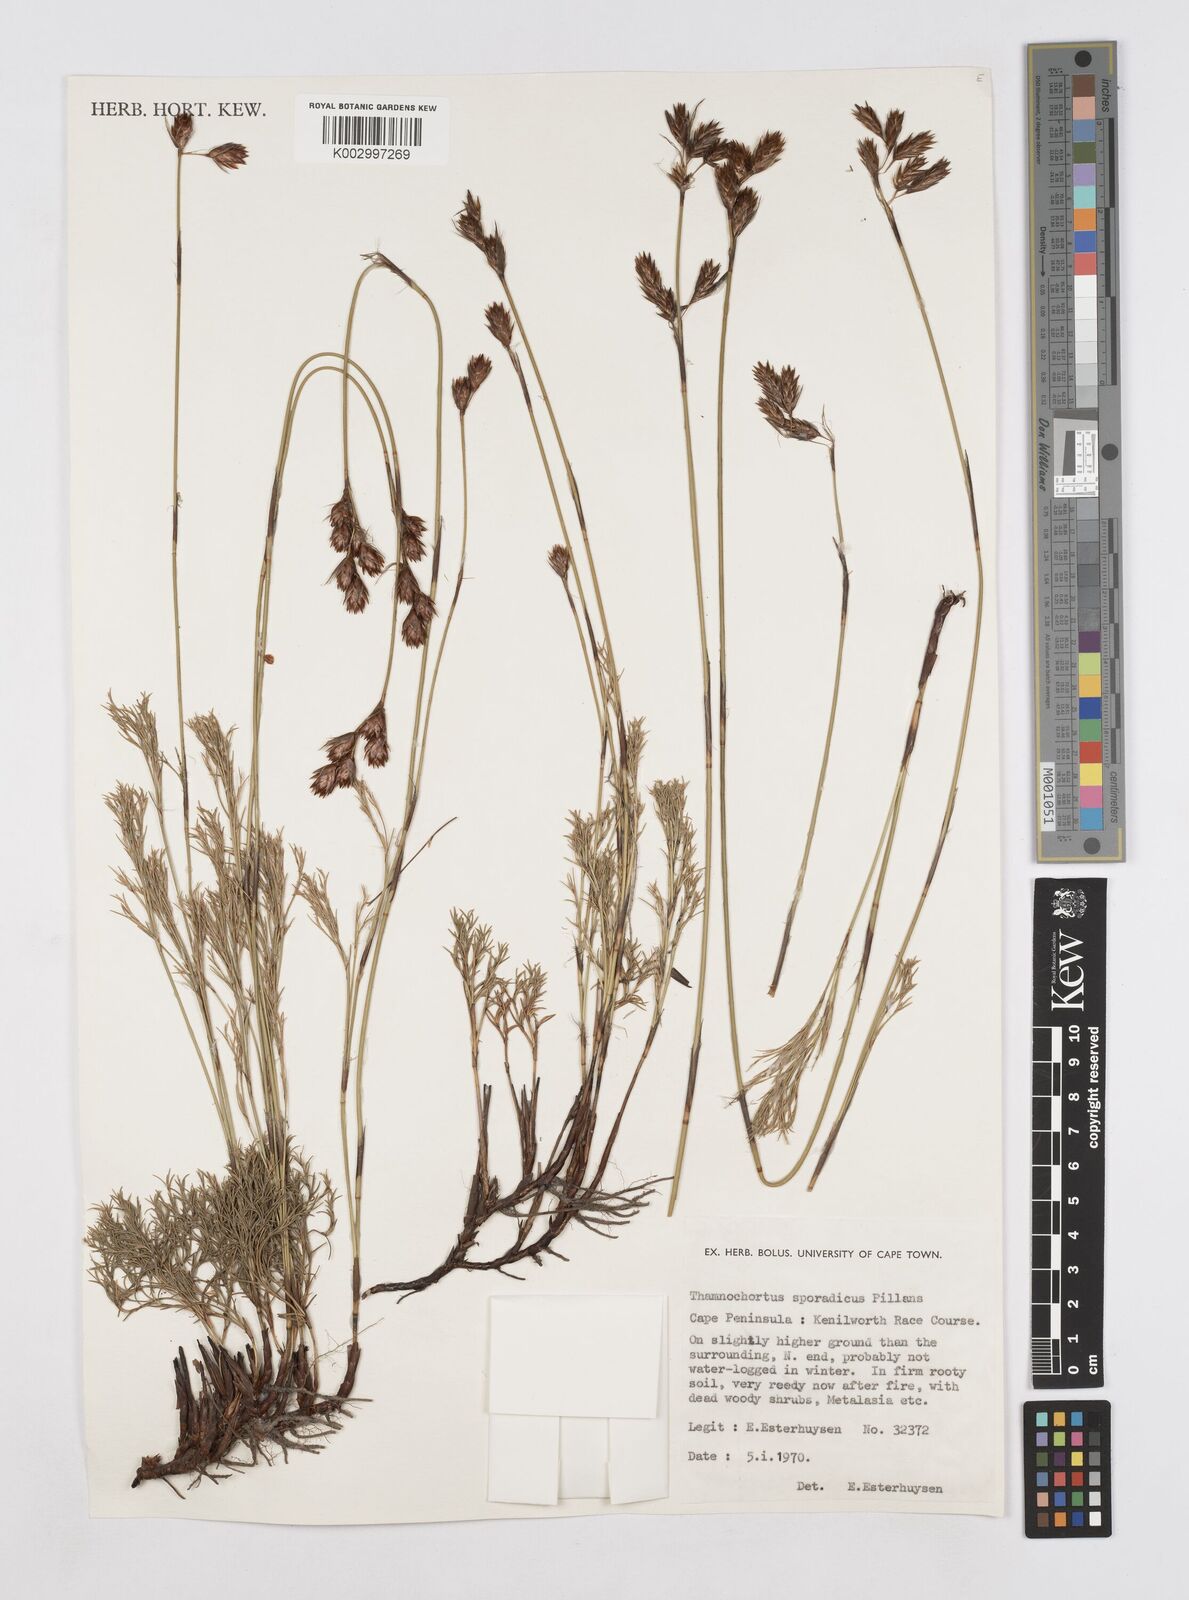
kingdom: Plantae
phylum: Tracheophyta
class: Liliopsida
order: Poales
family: Restionaceae
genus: Thamnochortus
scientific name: Thamnochortus sporadicus
